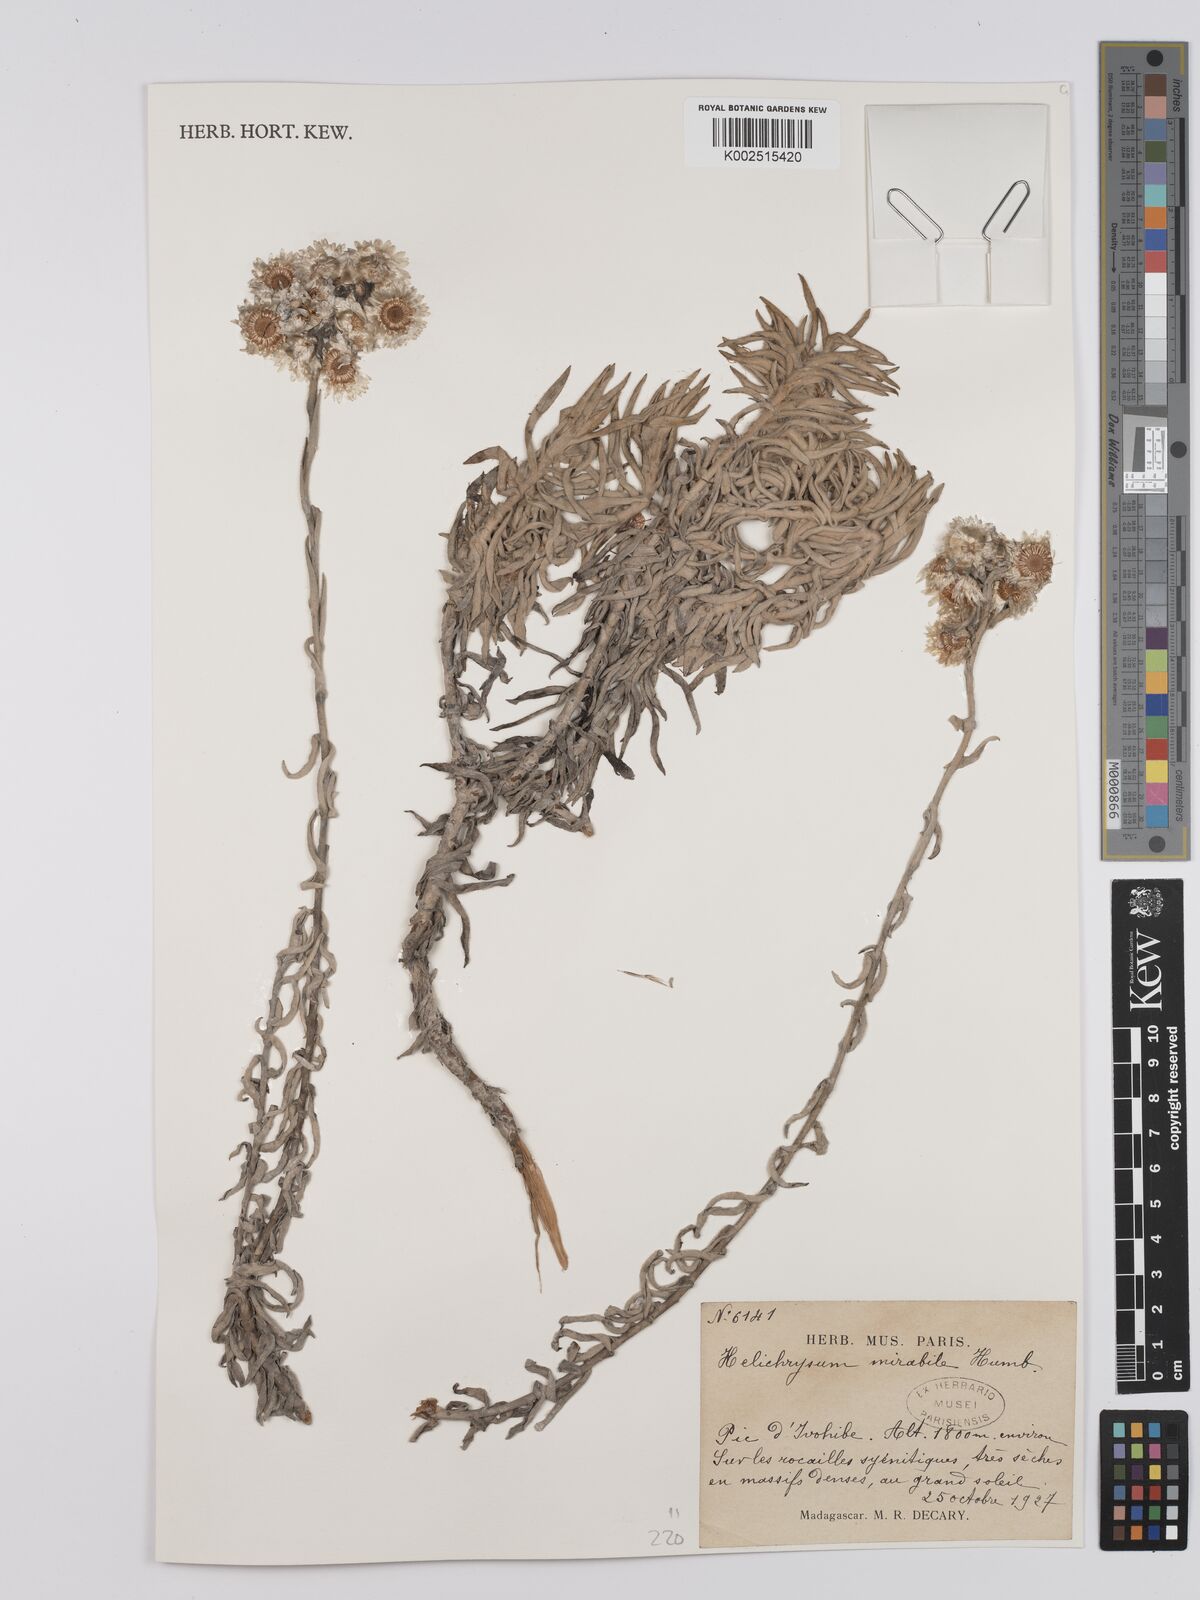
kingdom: Plantae
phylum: Tracheophyta
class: Magnoliopsida
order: Asterales
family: Asteraceae
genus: Helichrysum
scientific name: Helichrysum mirabile
